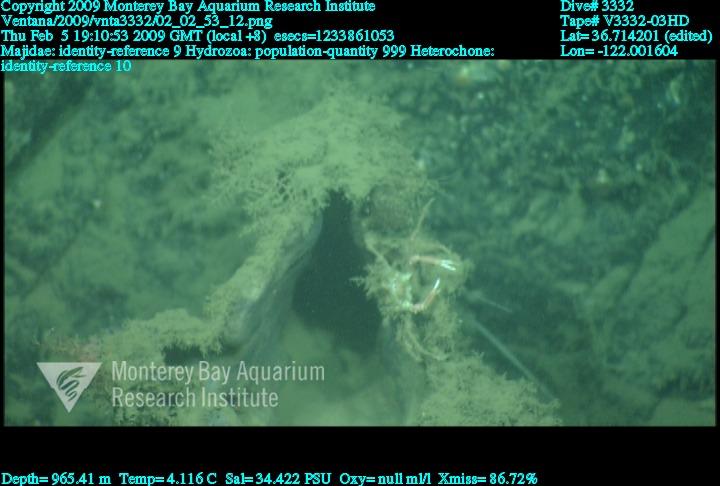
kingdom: Animalia
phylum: Porifera
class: Hexactinellida
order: Sceptrulophora
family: Aphrocallistidae
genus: Heterochone
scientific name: Heterochone
